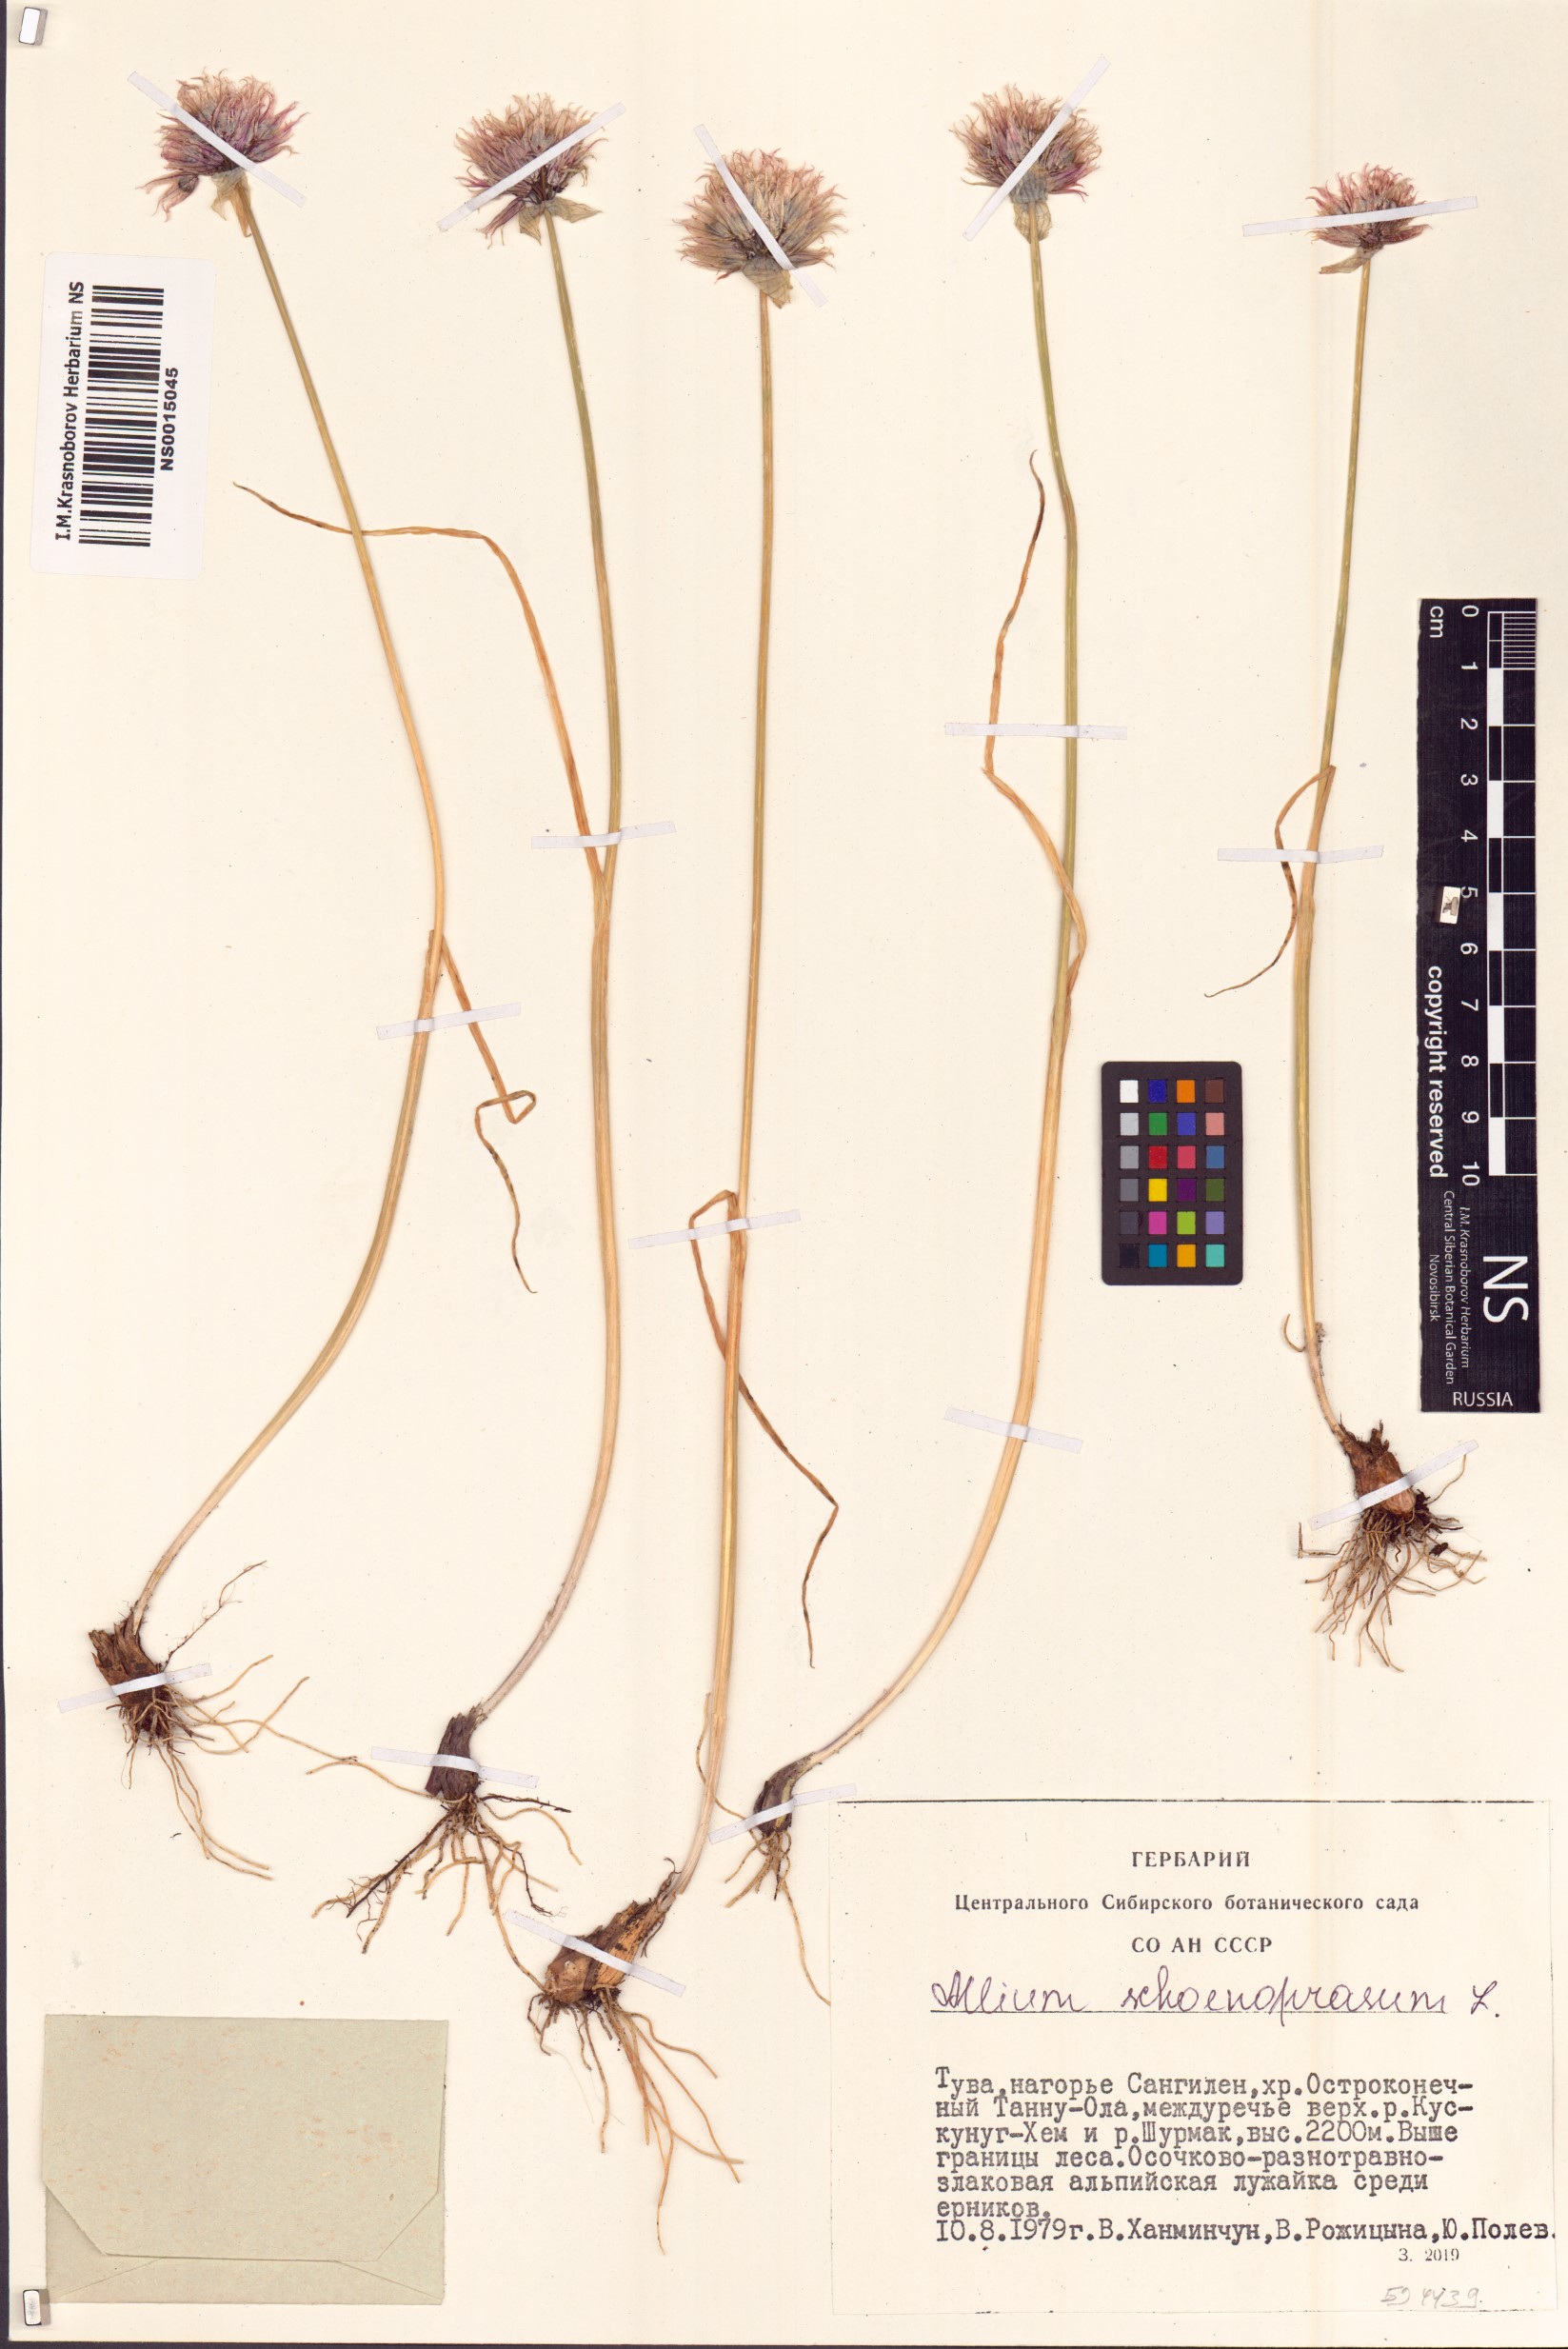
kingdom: Plantae
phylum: Tracheophyta
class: Liliopsida
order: Asparagales
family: Amaryllidaceae
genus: Allium
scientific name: Allium schoenoprasum
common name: Chives
